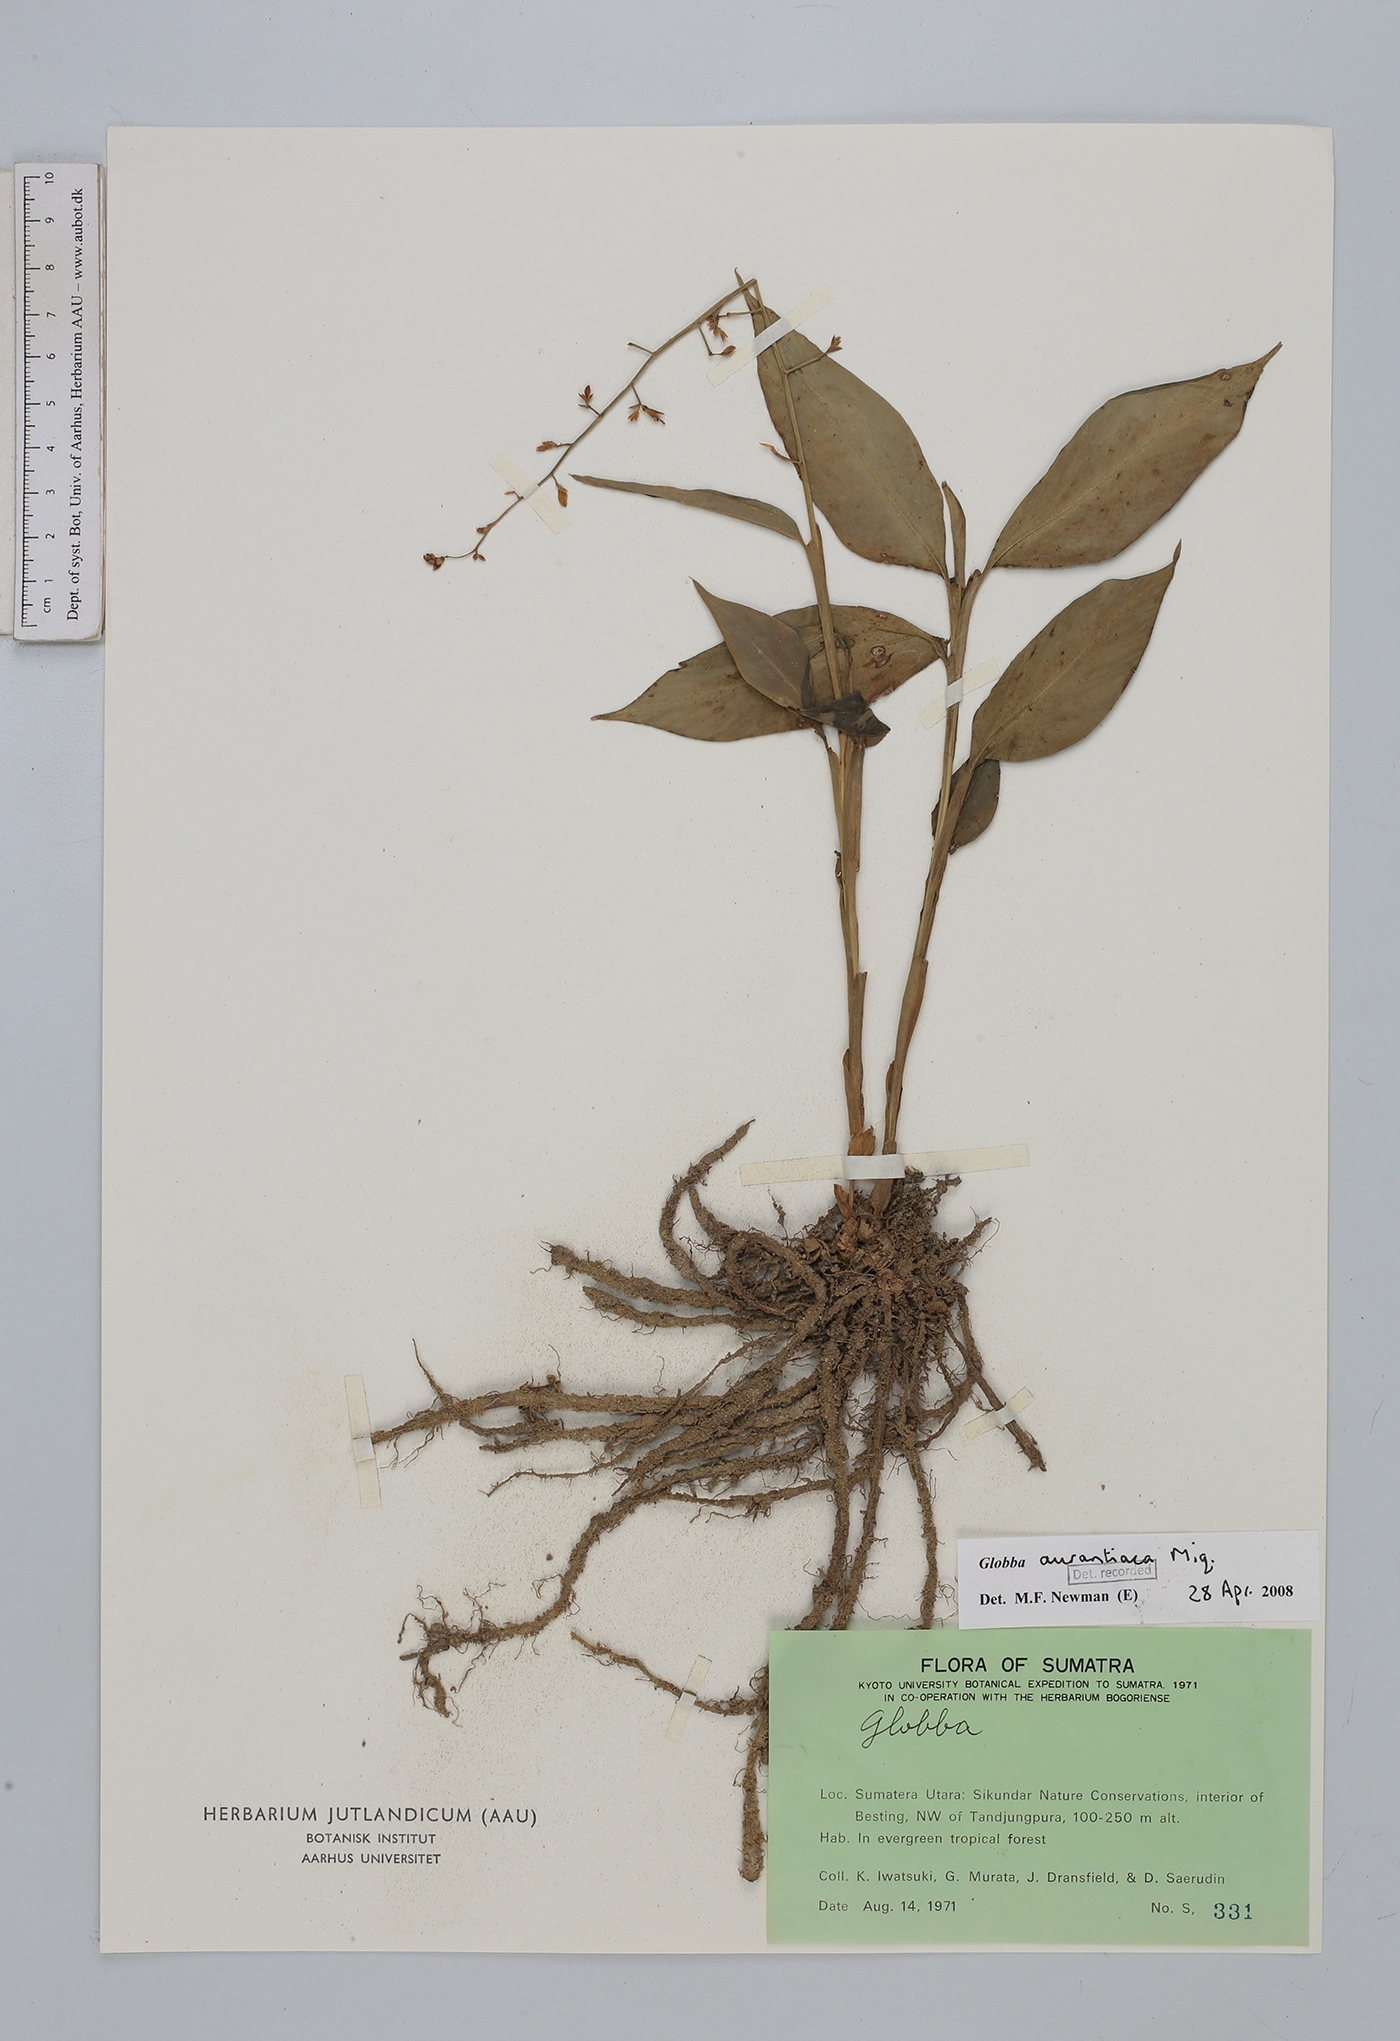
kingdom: Plantae
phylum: Tracheophyta
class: Liliopsida
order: Zingiberales
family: Zingiberaceae
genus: Globba
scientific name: Globba aurantiaca
